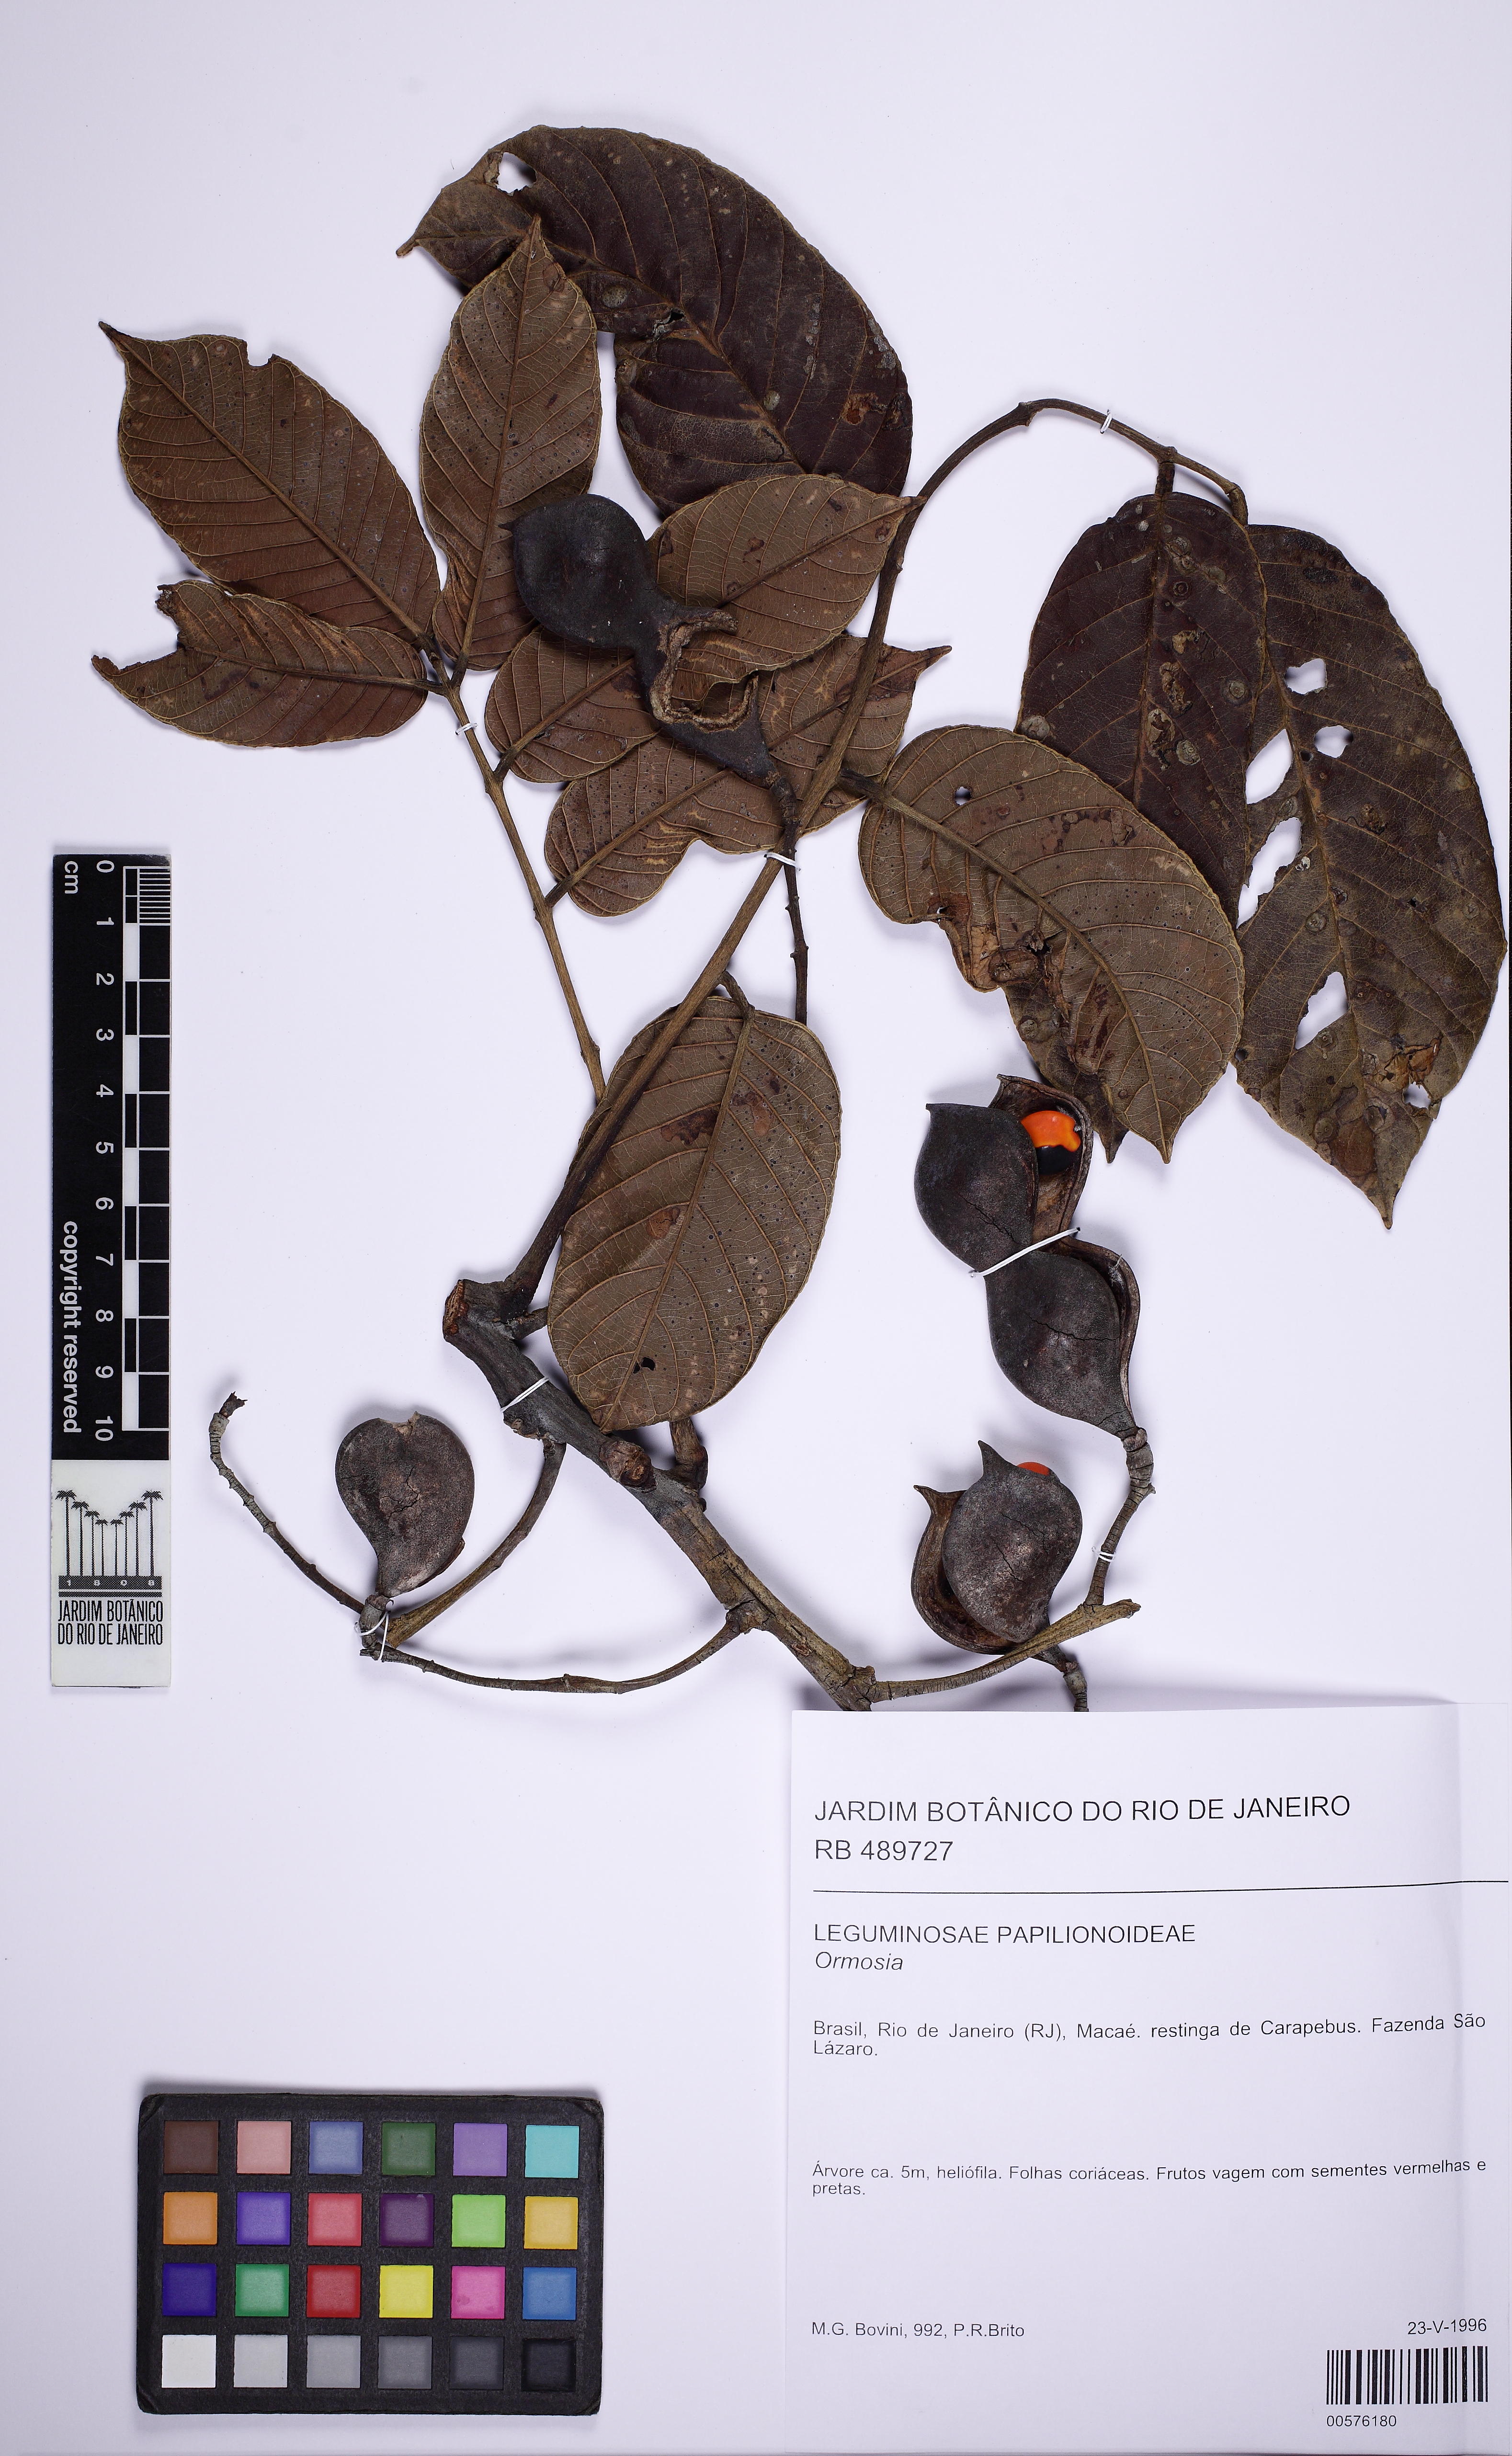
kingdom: Plantae
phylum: Tracheophyta
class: Magnoliopsida
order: Fabales
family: Fabaceae
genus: Ormosia
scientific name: Ormosia arborea
